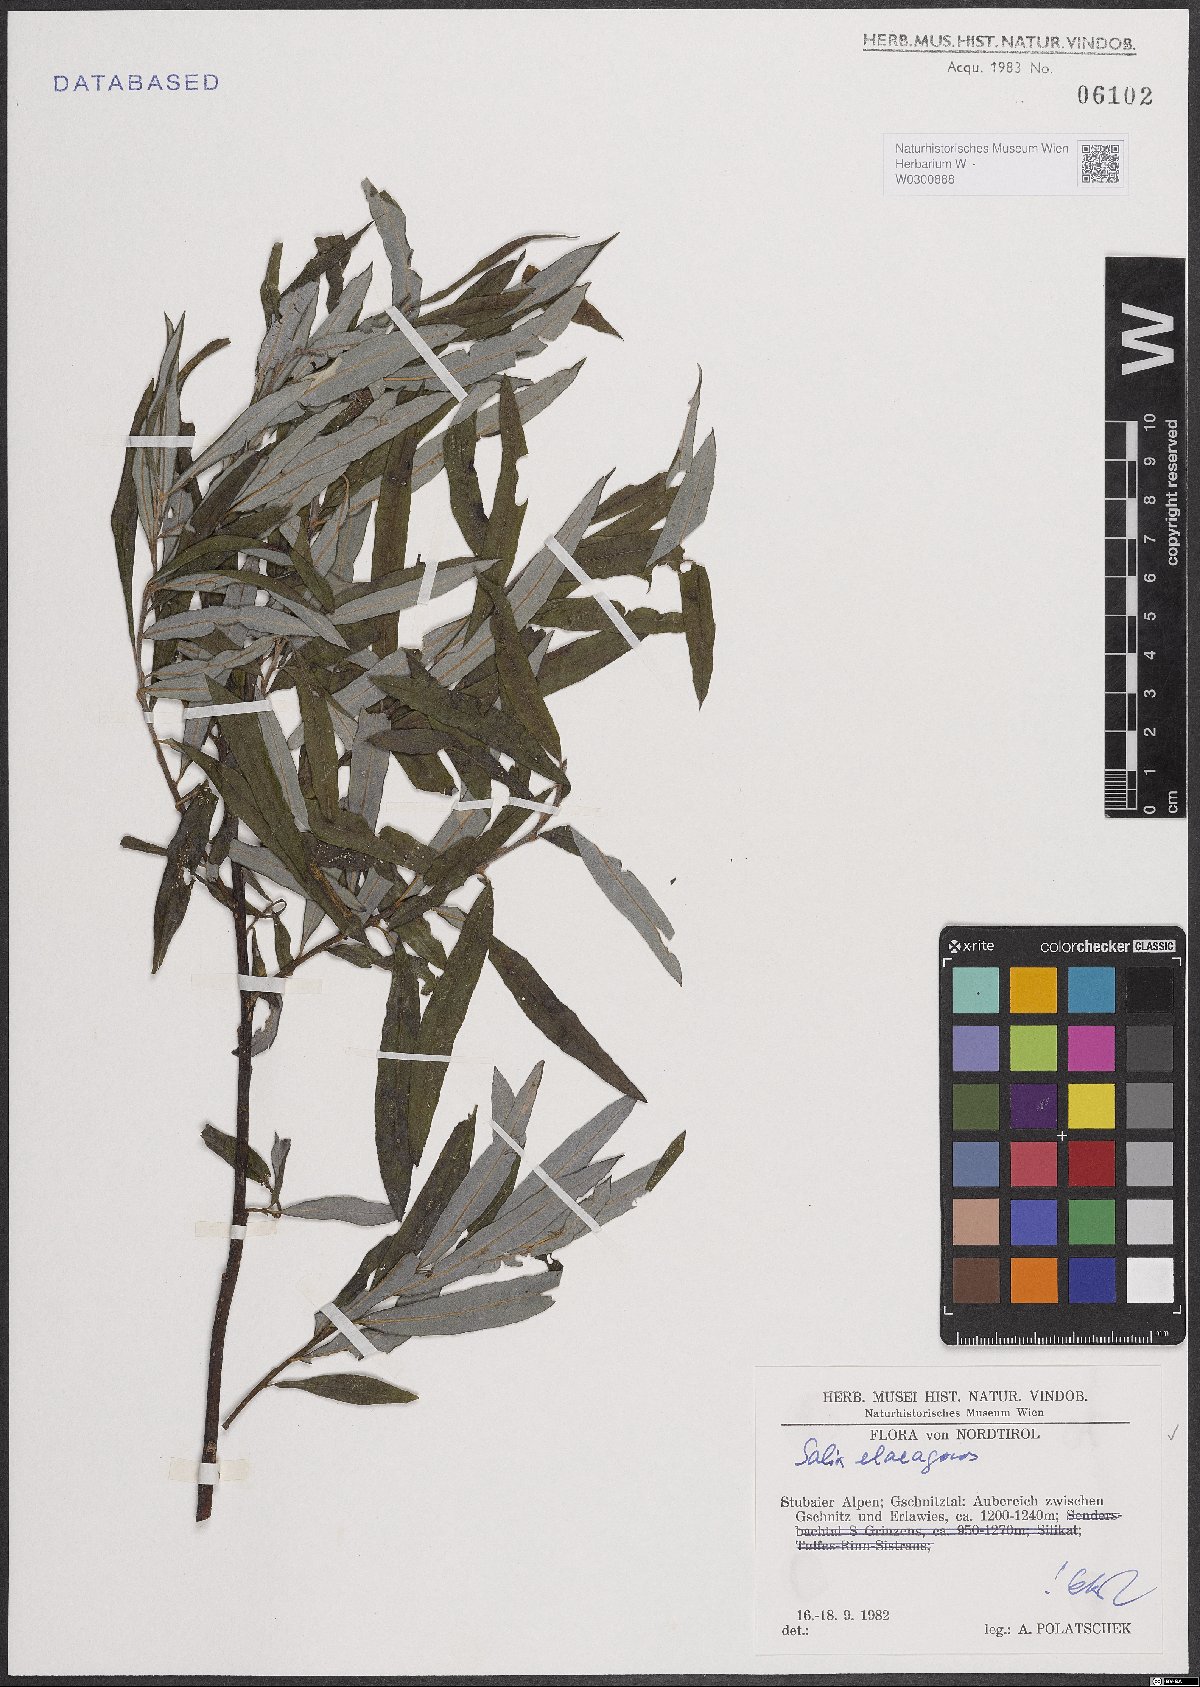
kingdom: Plantae
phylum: Tracheophyta
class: Magnoliopsida
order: Malpighiales
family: Salicaceae
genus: Salix
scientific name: Salix eleagnos
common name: Elaeagnus willow
